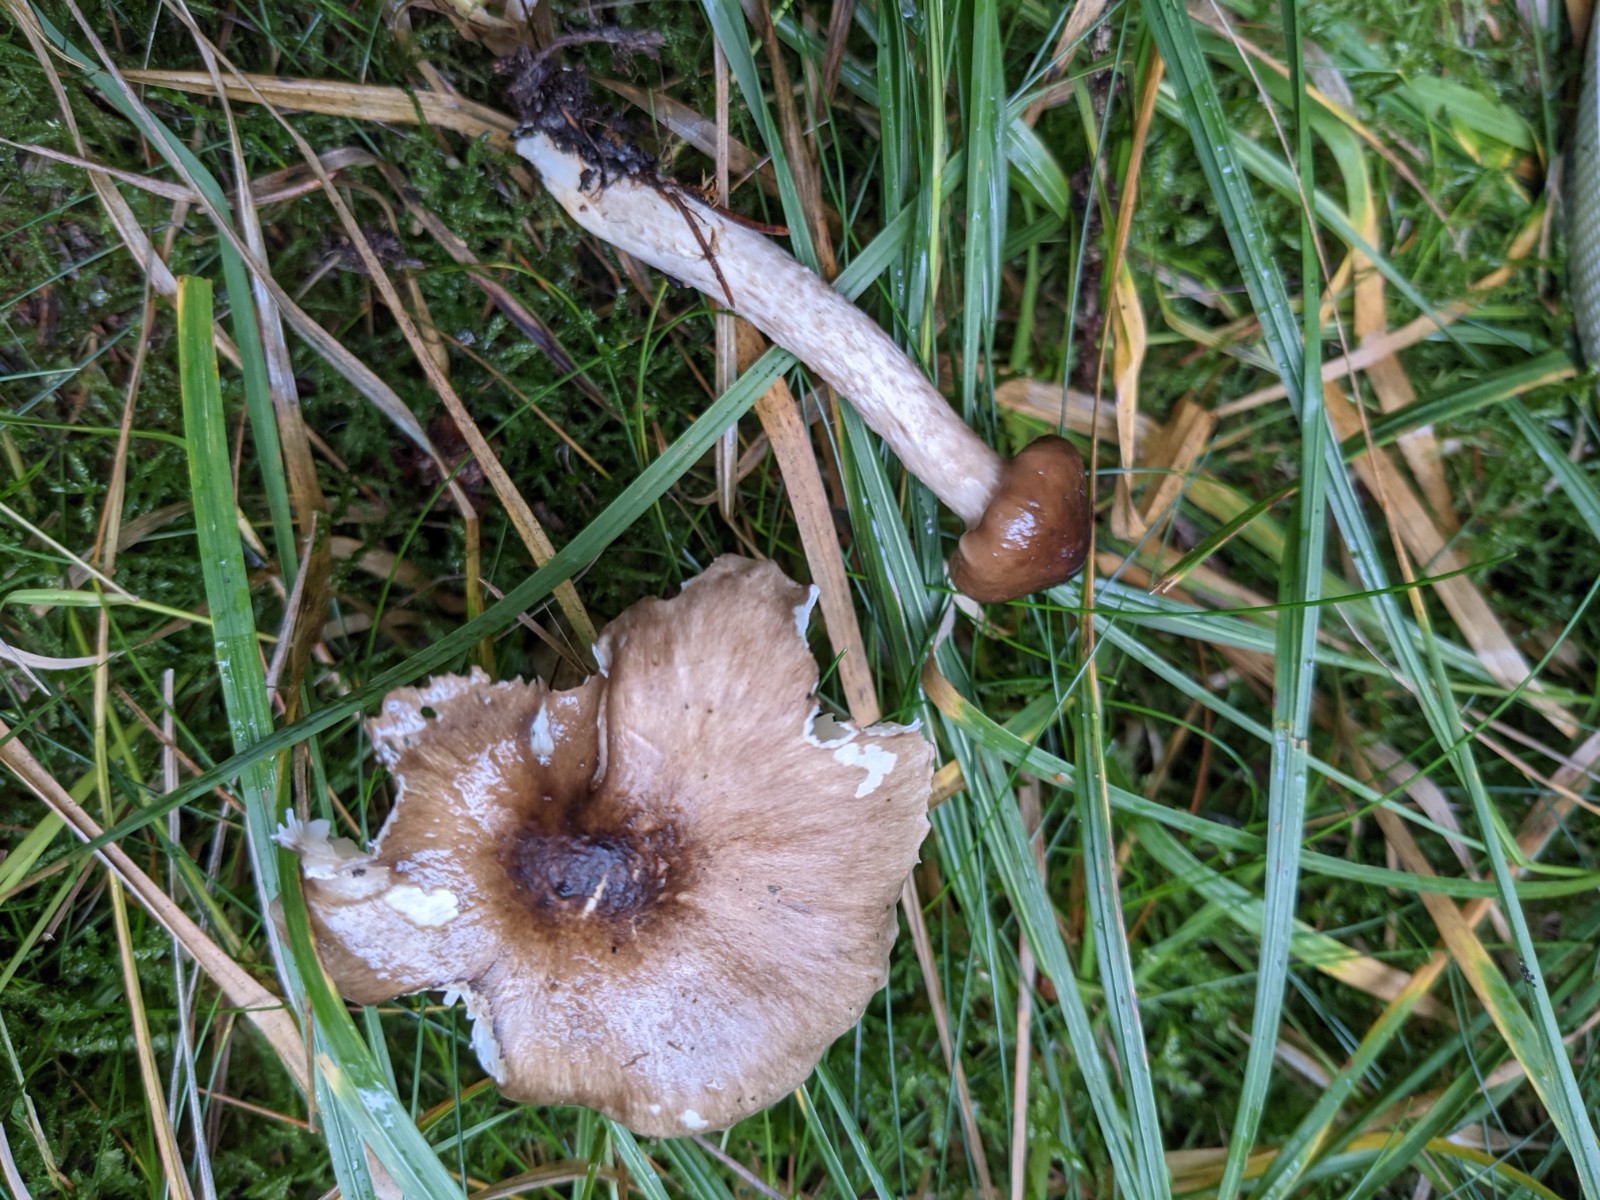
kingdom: Fungi
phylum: Basidiomycota
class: Agaricomycetes
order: Agaricales
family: Hygrophoraceae
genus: Hygrophorus
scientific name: Hygrophorus olivaceoalbus
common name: hvidbrun sneglehat
